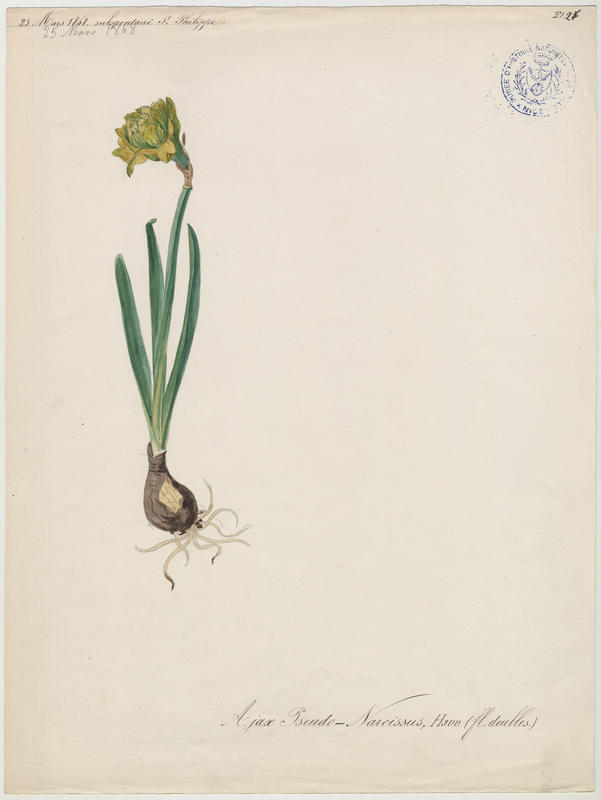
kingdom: Plantae
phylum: Tracheophyta
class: Liliopsida
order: Asparagales
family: Amaryllidaceae
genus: Narcissus
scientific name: Narcissus pseudonarcissus
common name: Daffodil
